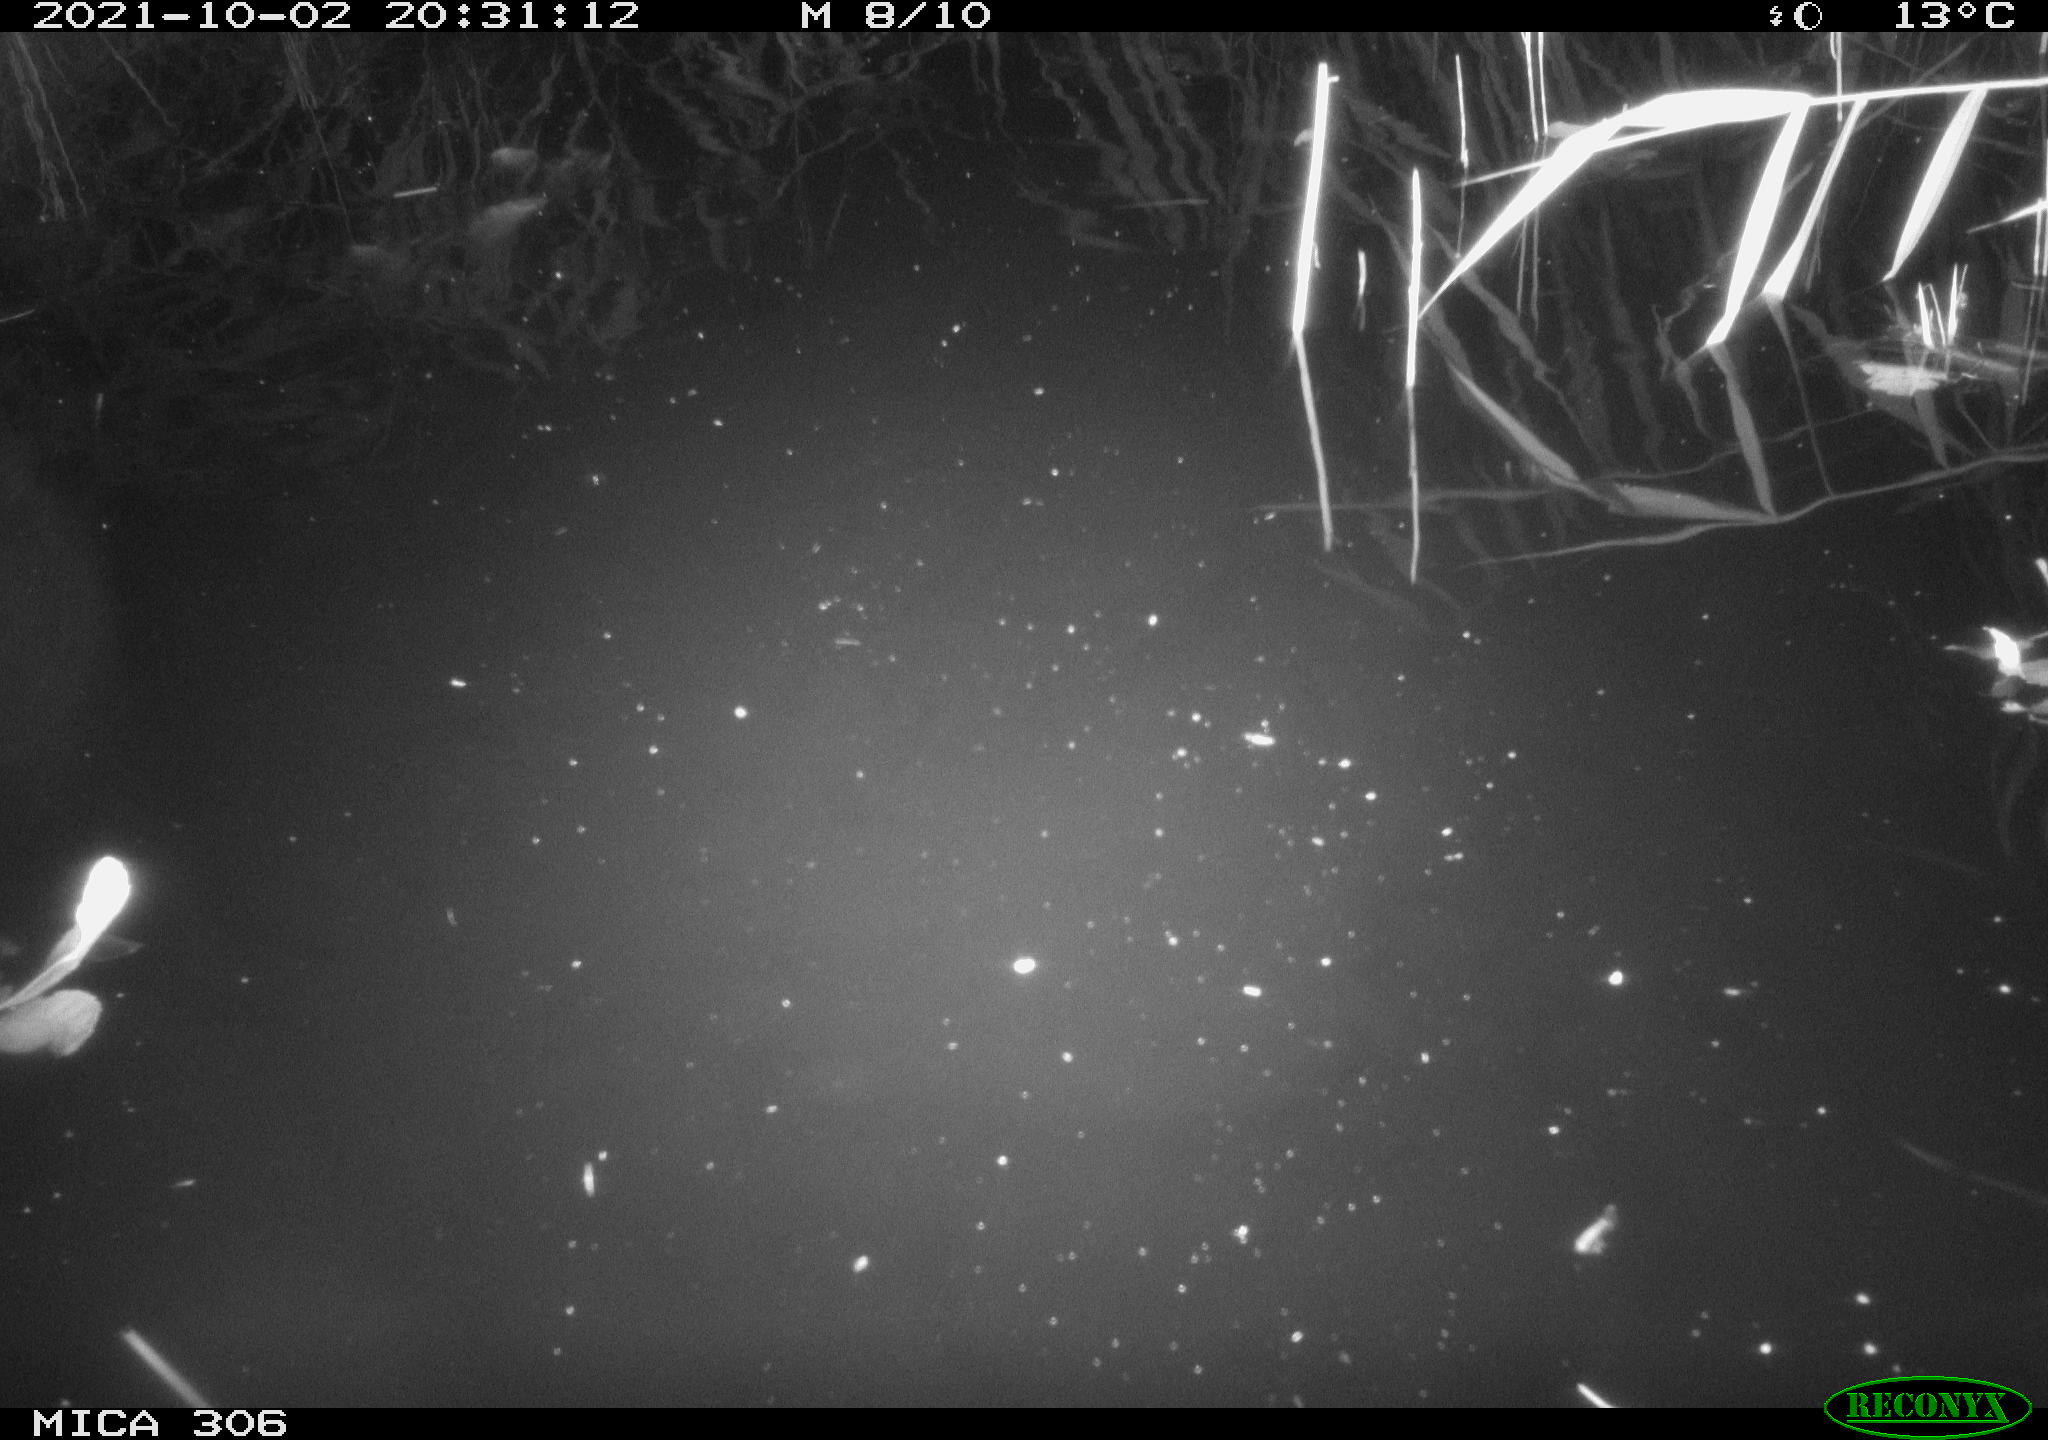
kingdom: Animalia
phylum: Chordata
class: Mammalia
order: Rodentia
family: Muridae
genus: Rattus
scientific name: Rattus norvegicus
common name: Brown rat
